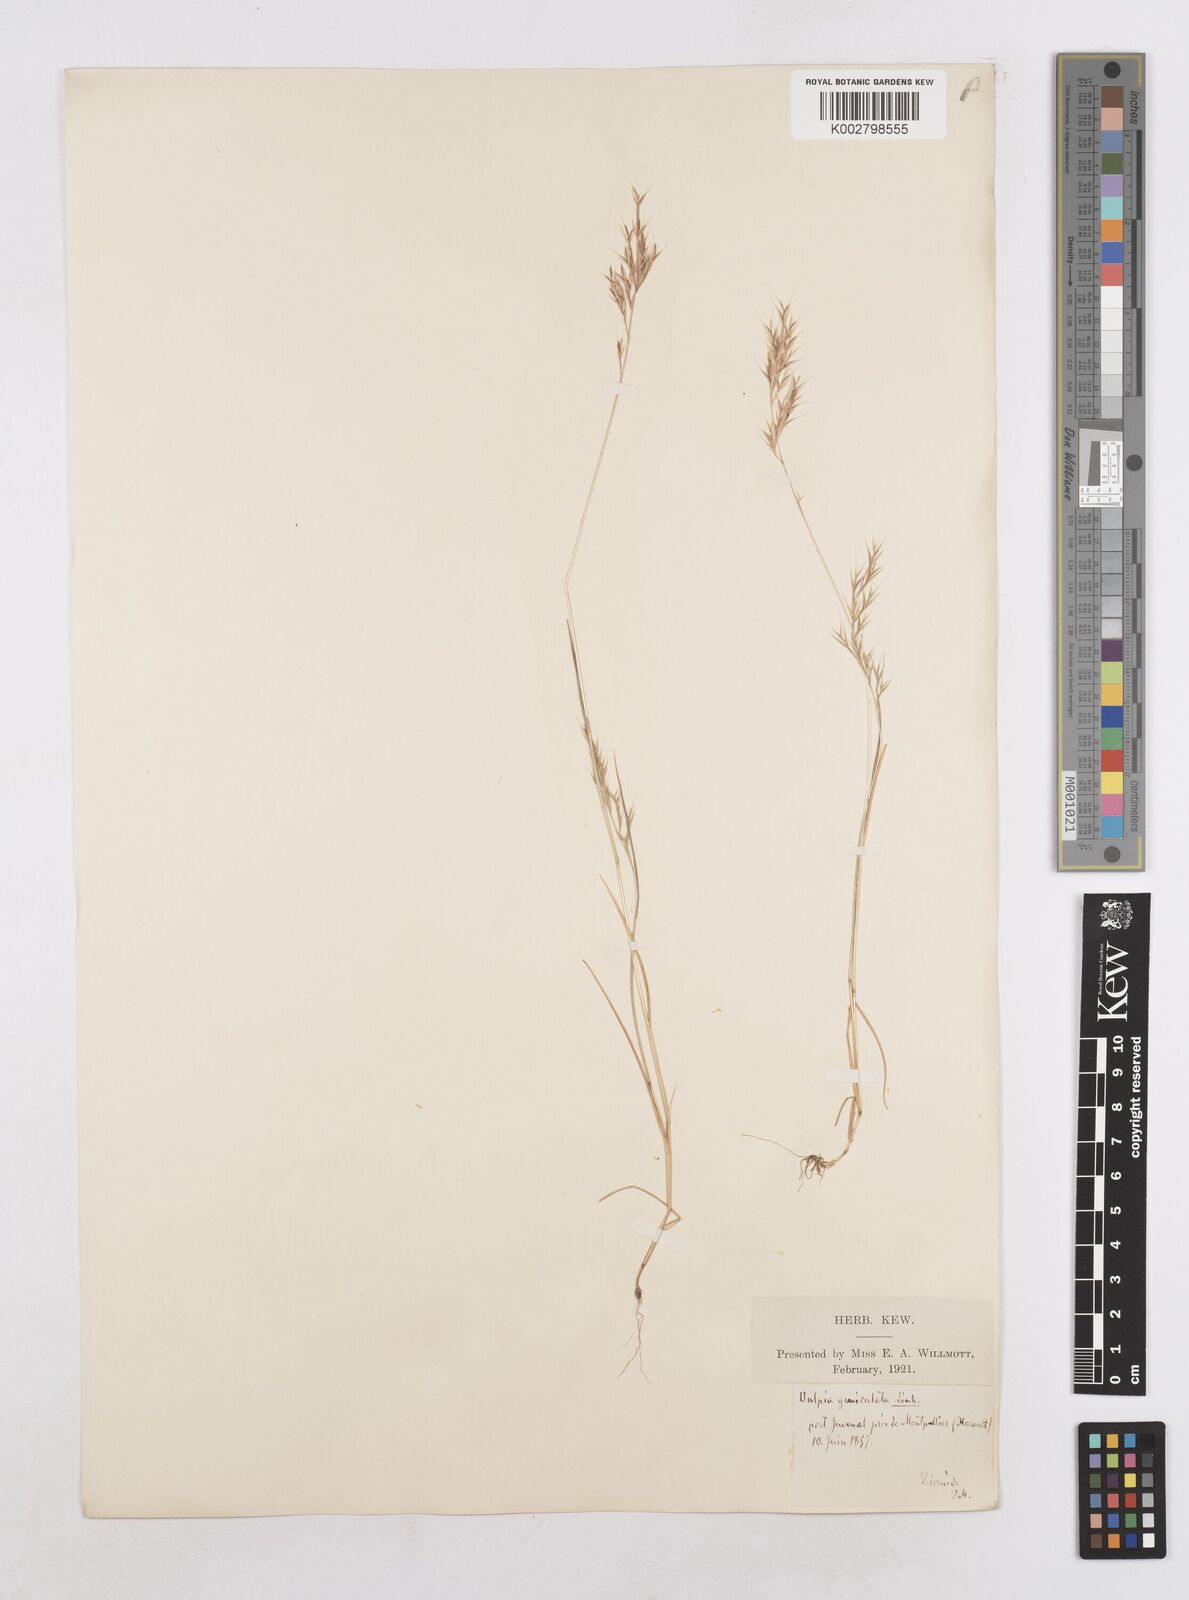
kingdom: Plantae
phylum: Tracheophyta
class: Liliopsida
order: Poales
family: Poaceae
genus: Festuca
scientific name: Festuca geniculata
